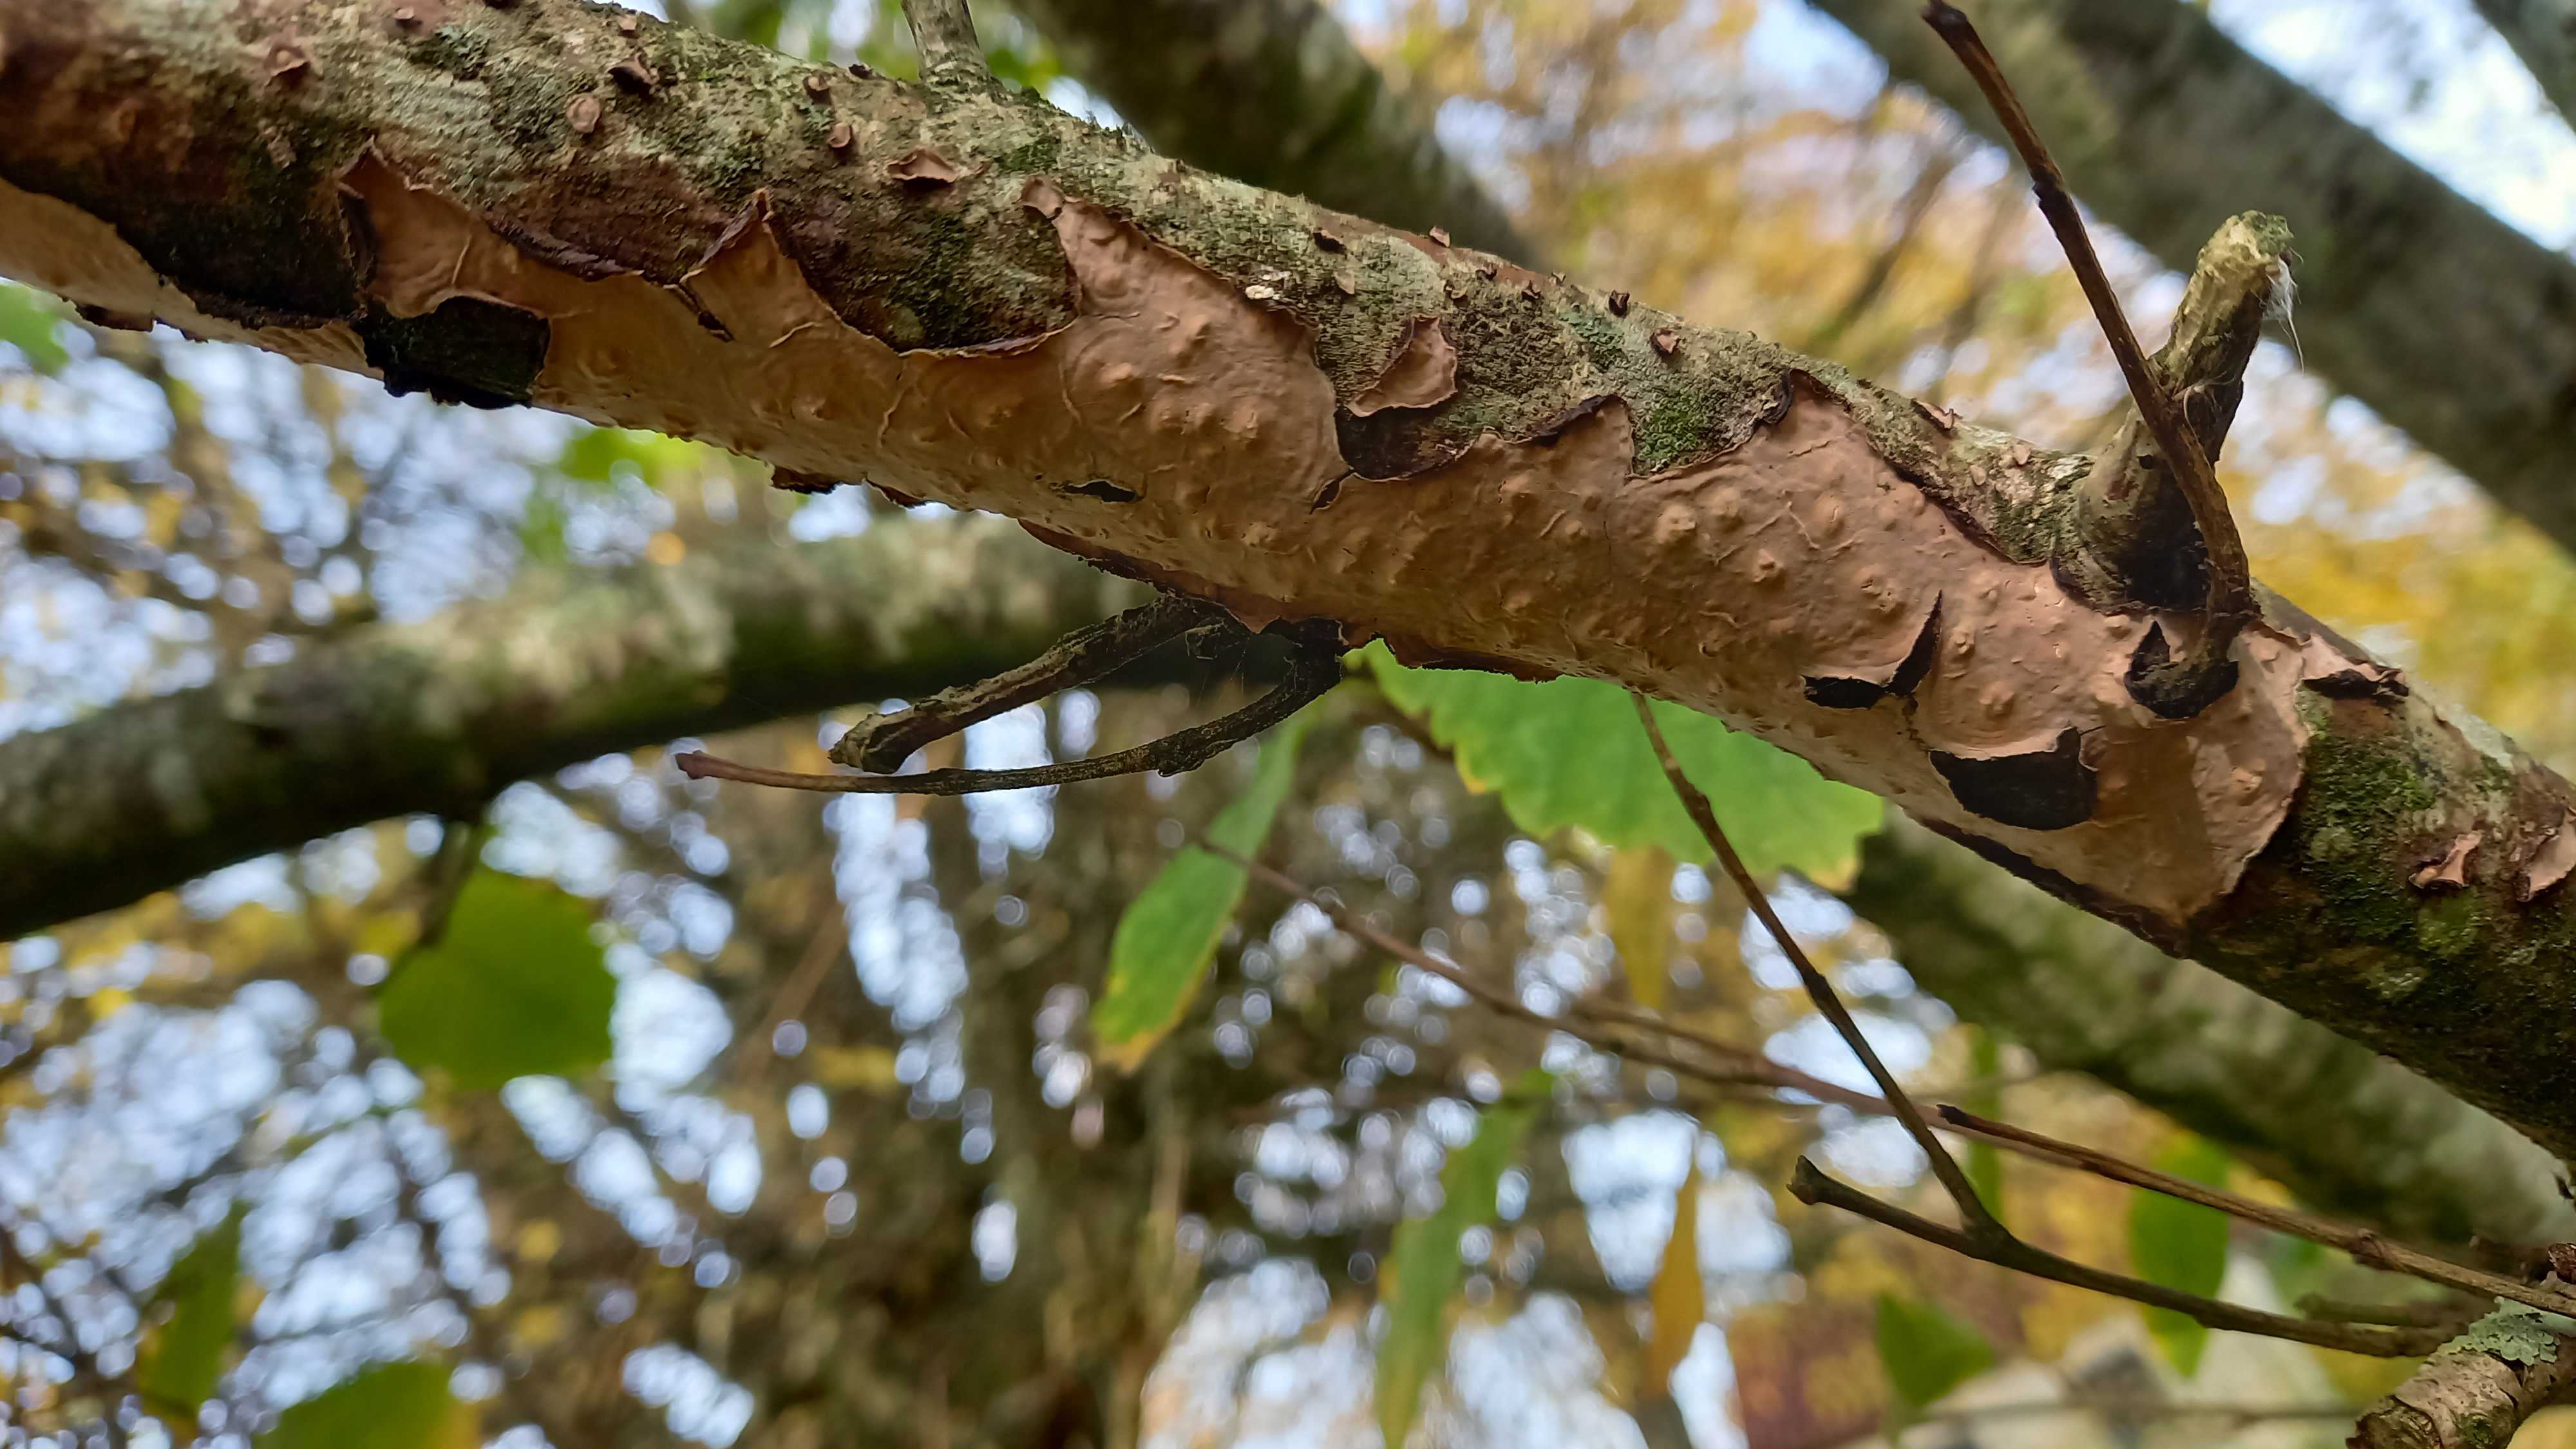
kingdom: Fungi
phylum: Basidiomycota
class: Agaricomycetes
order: Russulales
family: Peniophoraceae
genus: Peniophora
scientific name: Peniophora quercina
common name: ege-voksskind
